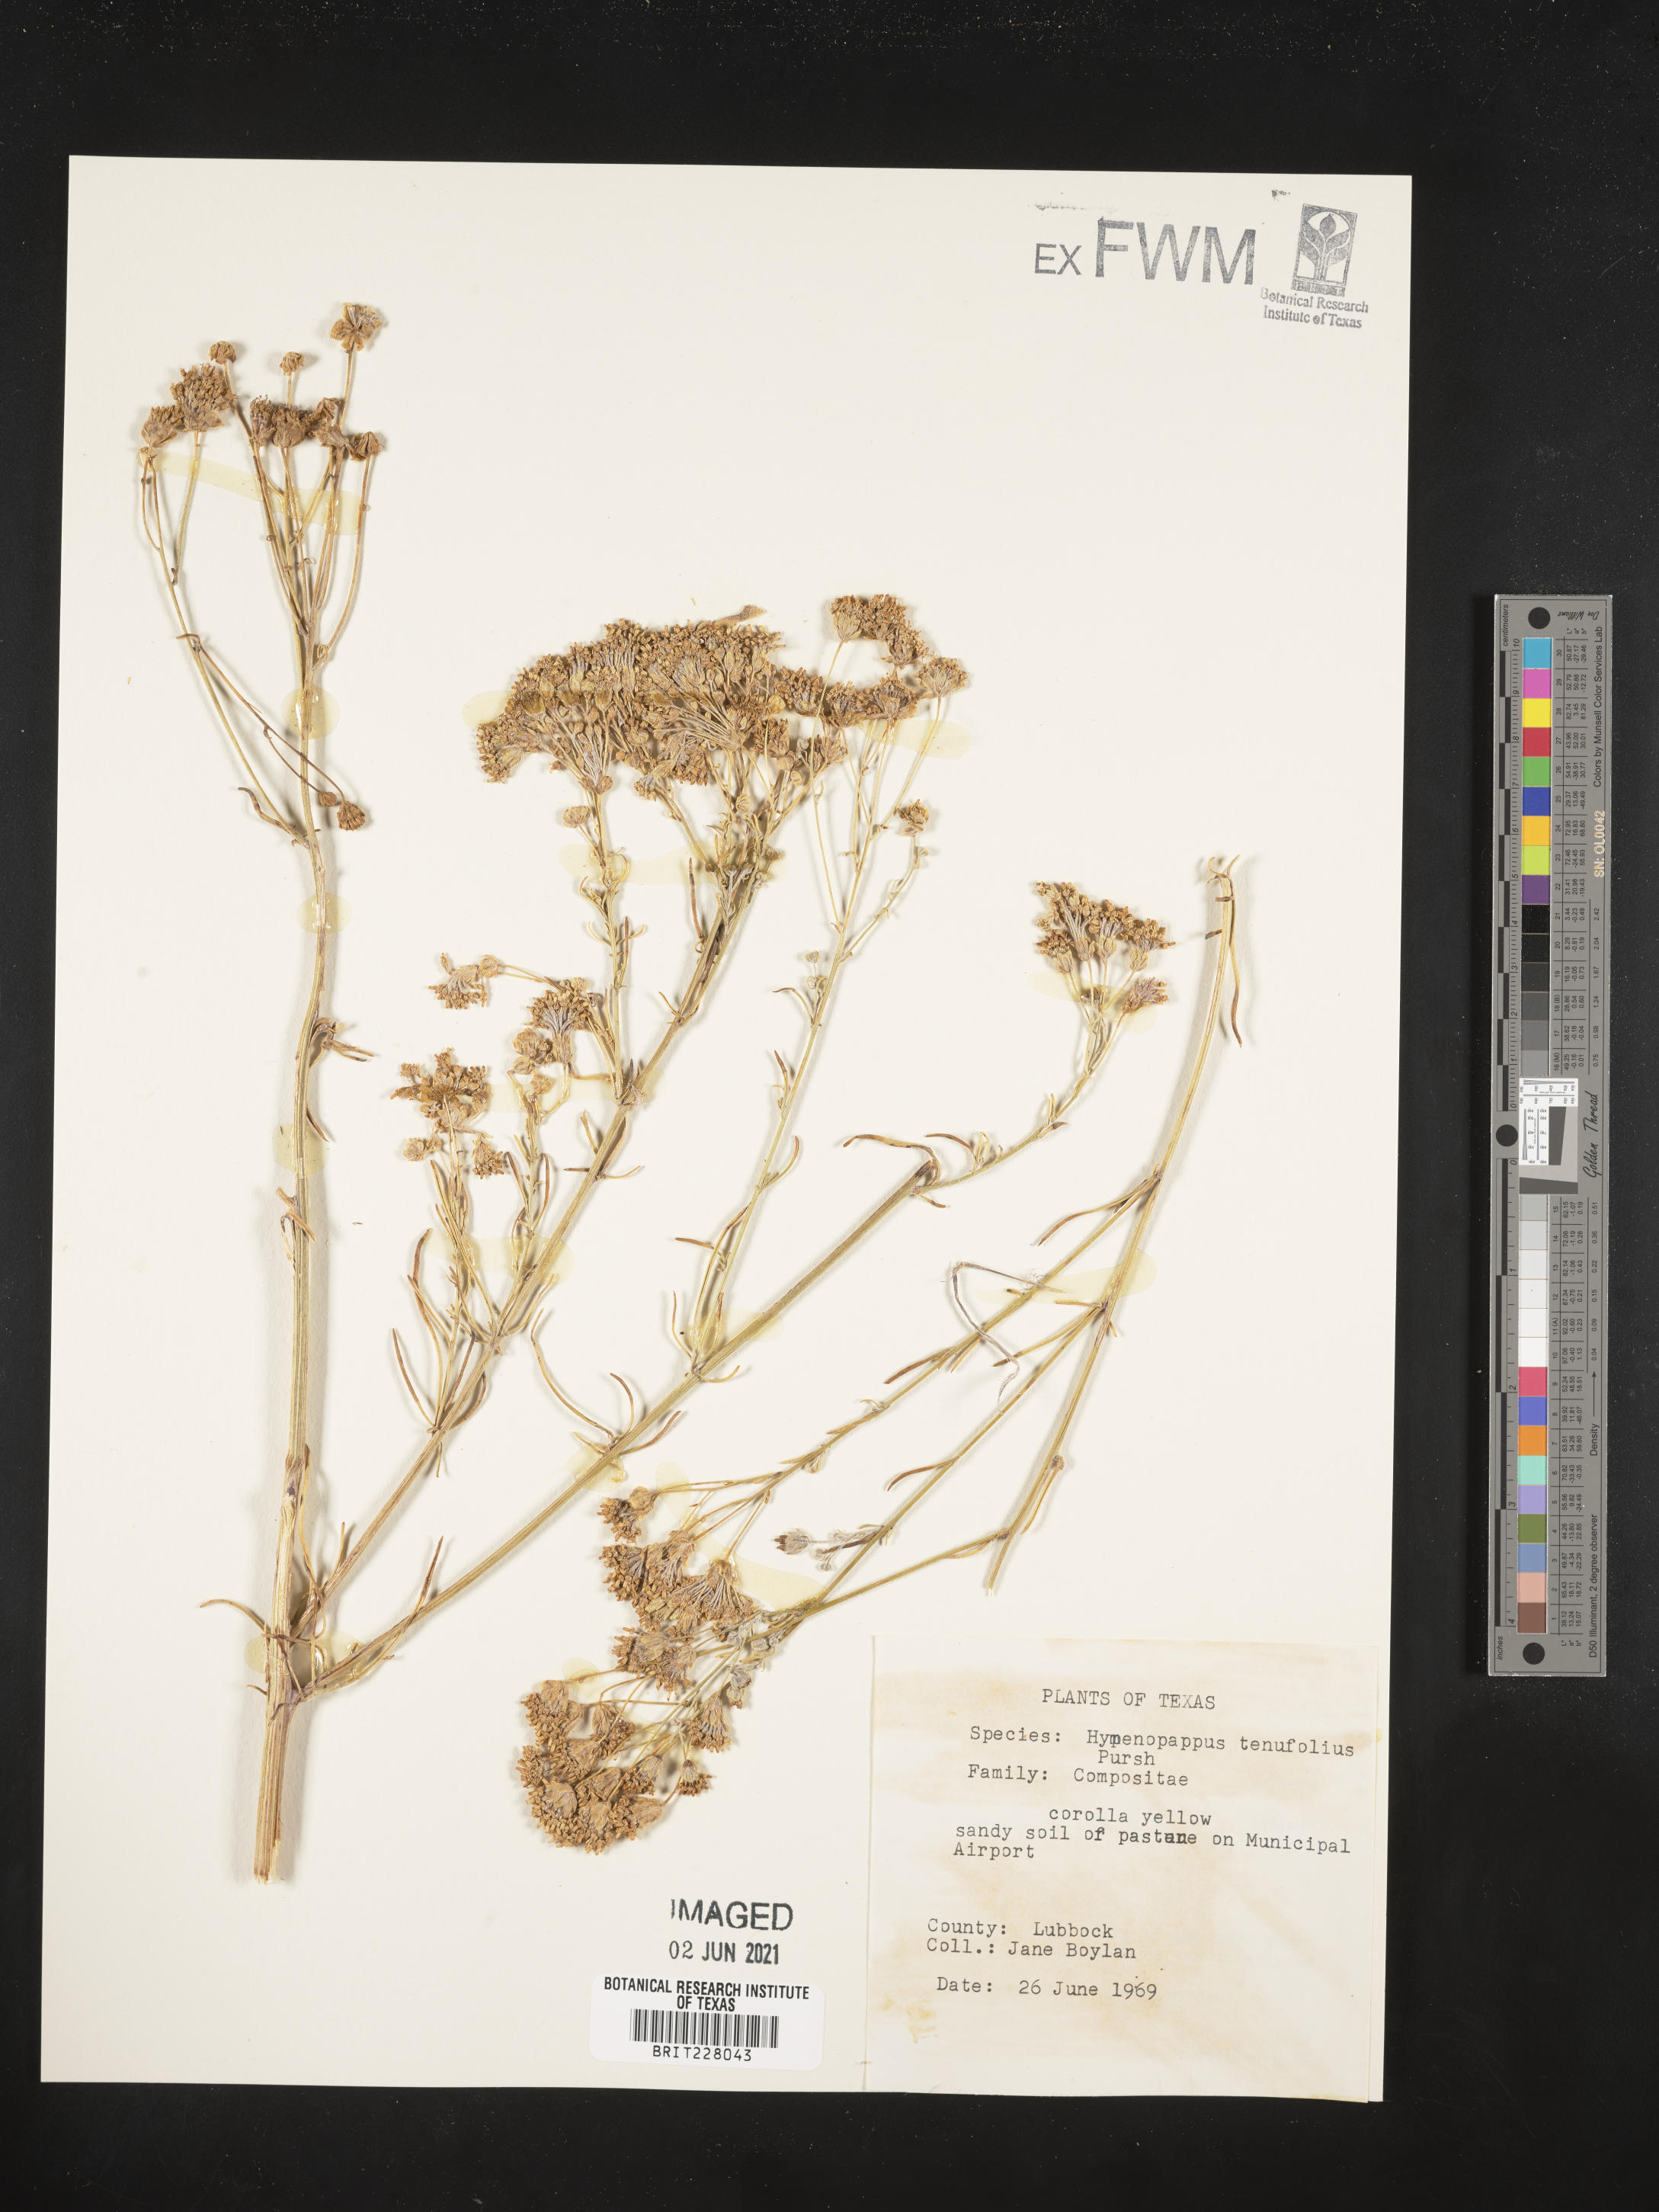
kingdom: Plantae
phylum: Tracheophyta
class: Magnoliopsida
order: Asterales
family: Asteraceae
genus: Hymenopappus
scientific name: Hymenopappus tenuifolius
